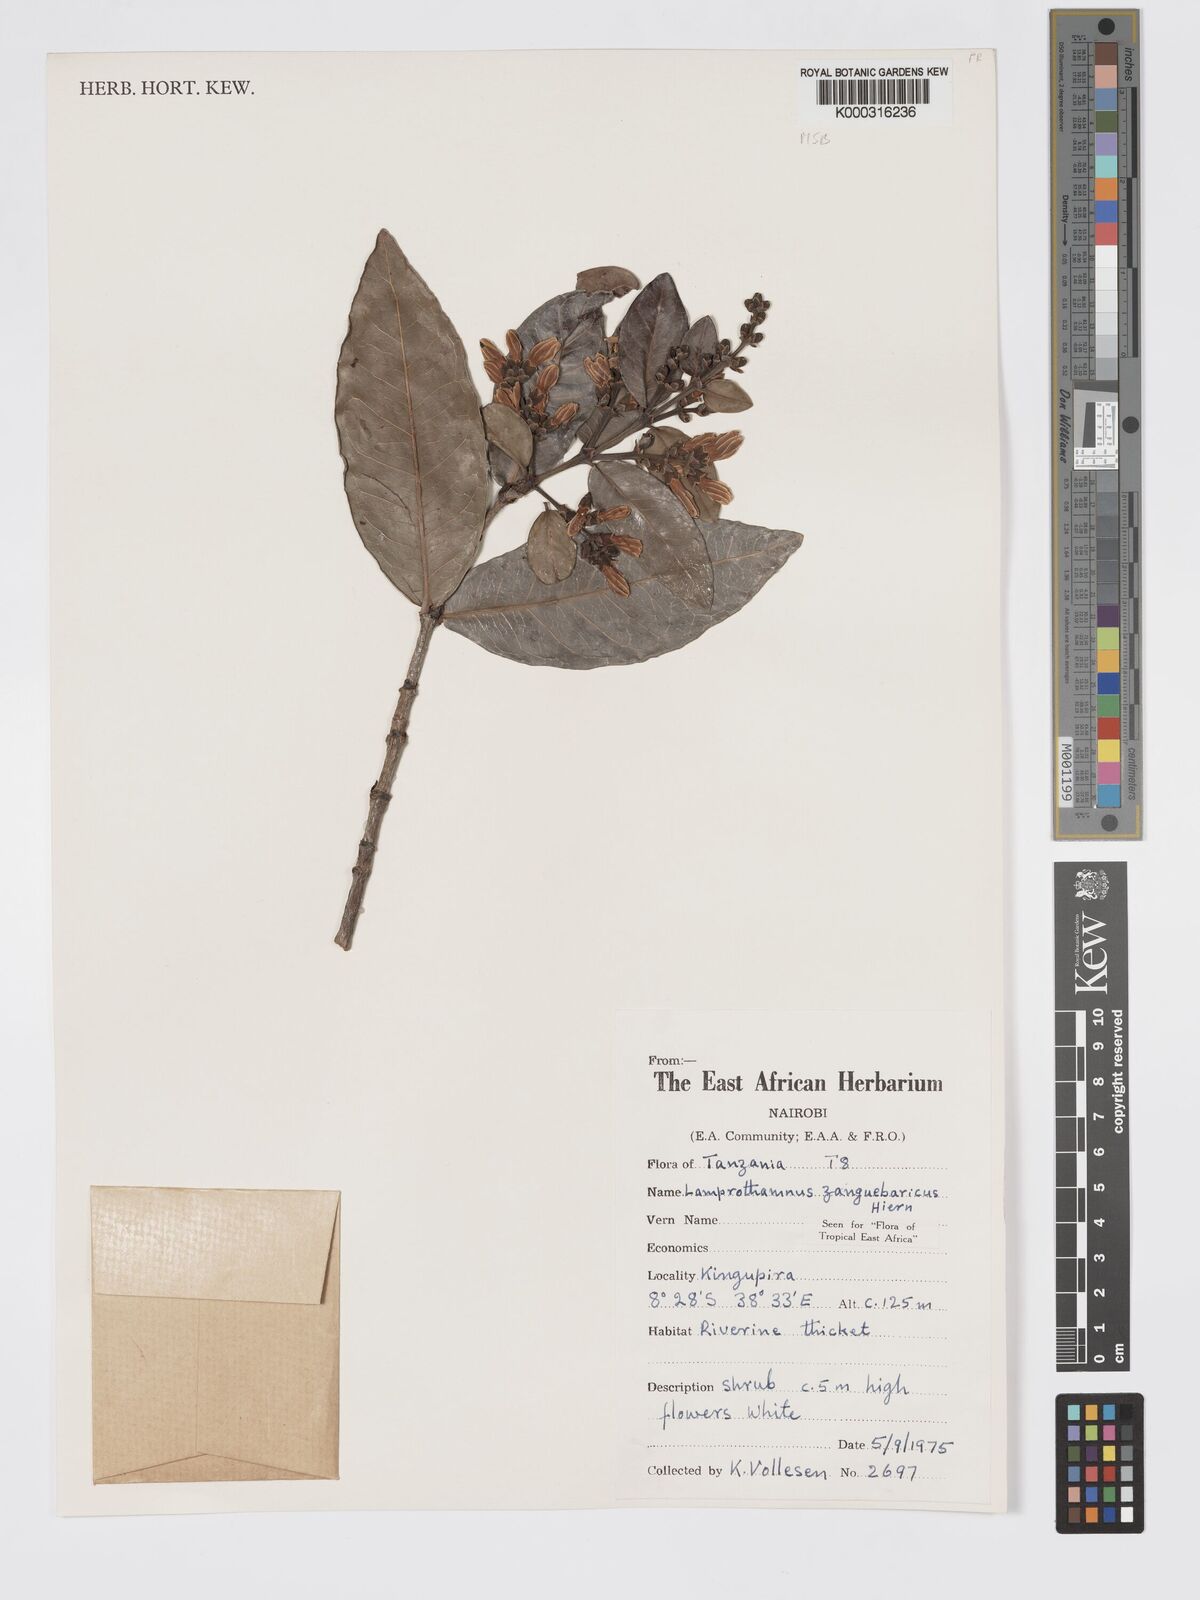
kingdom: Plantae
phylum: Tracheophyta
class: Magnoliopsida
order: Gentianales
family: Rubiaceae
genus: Lamprothamnus
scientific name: Lamprothamnus zanguebaricus
